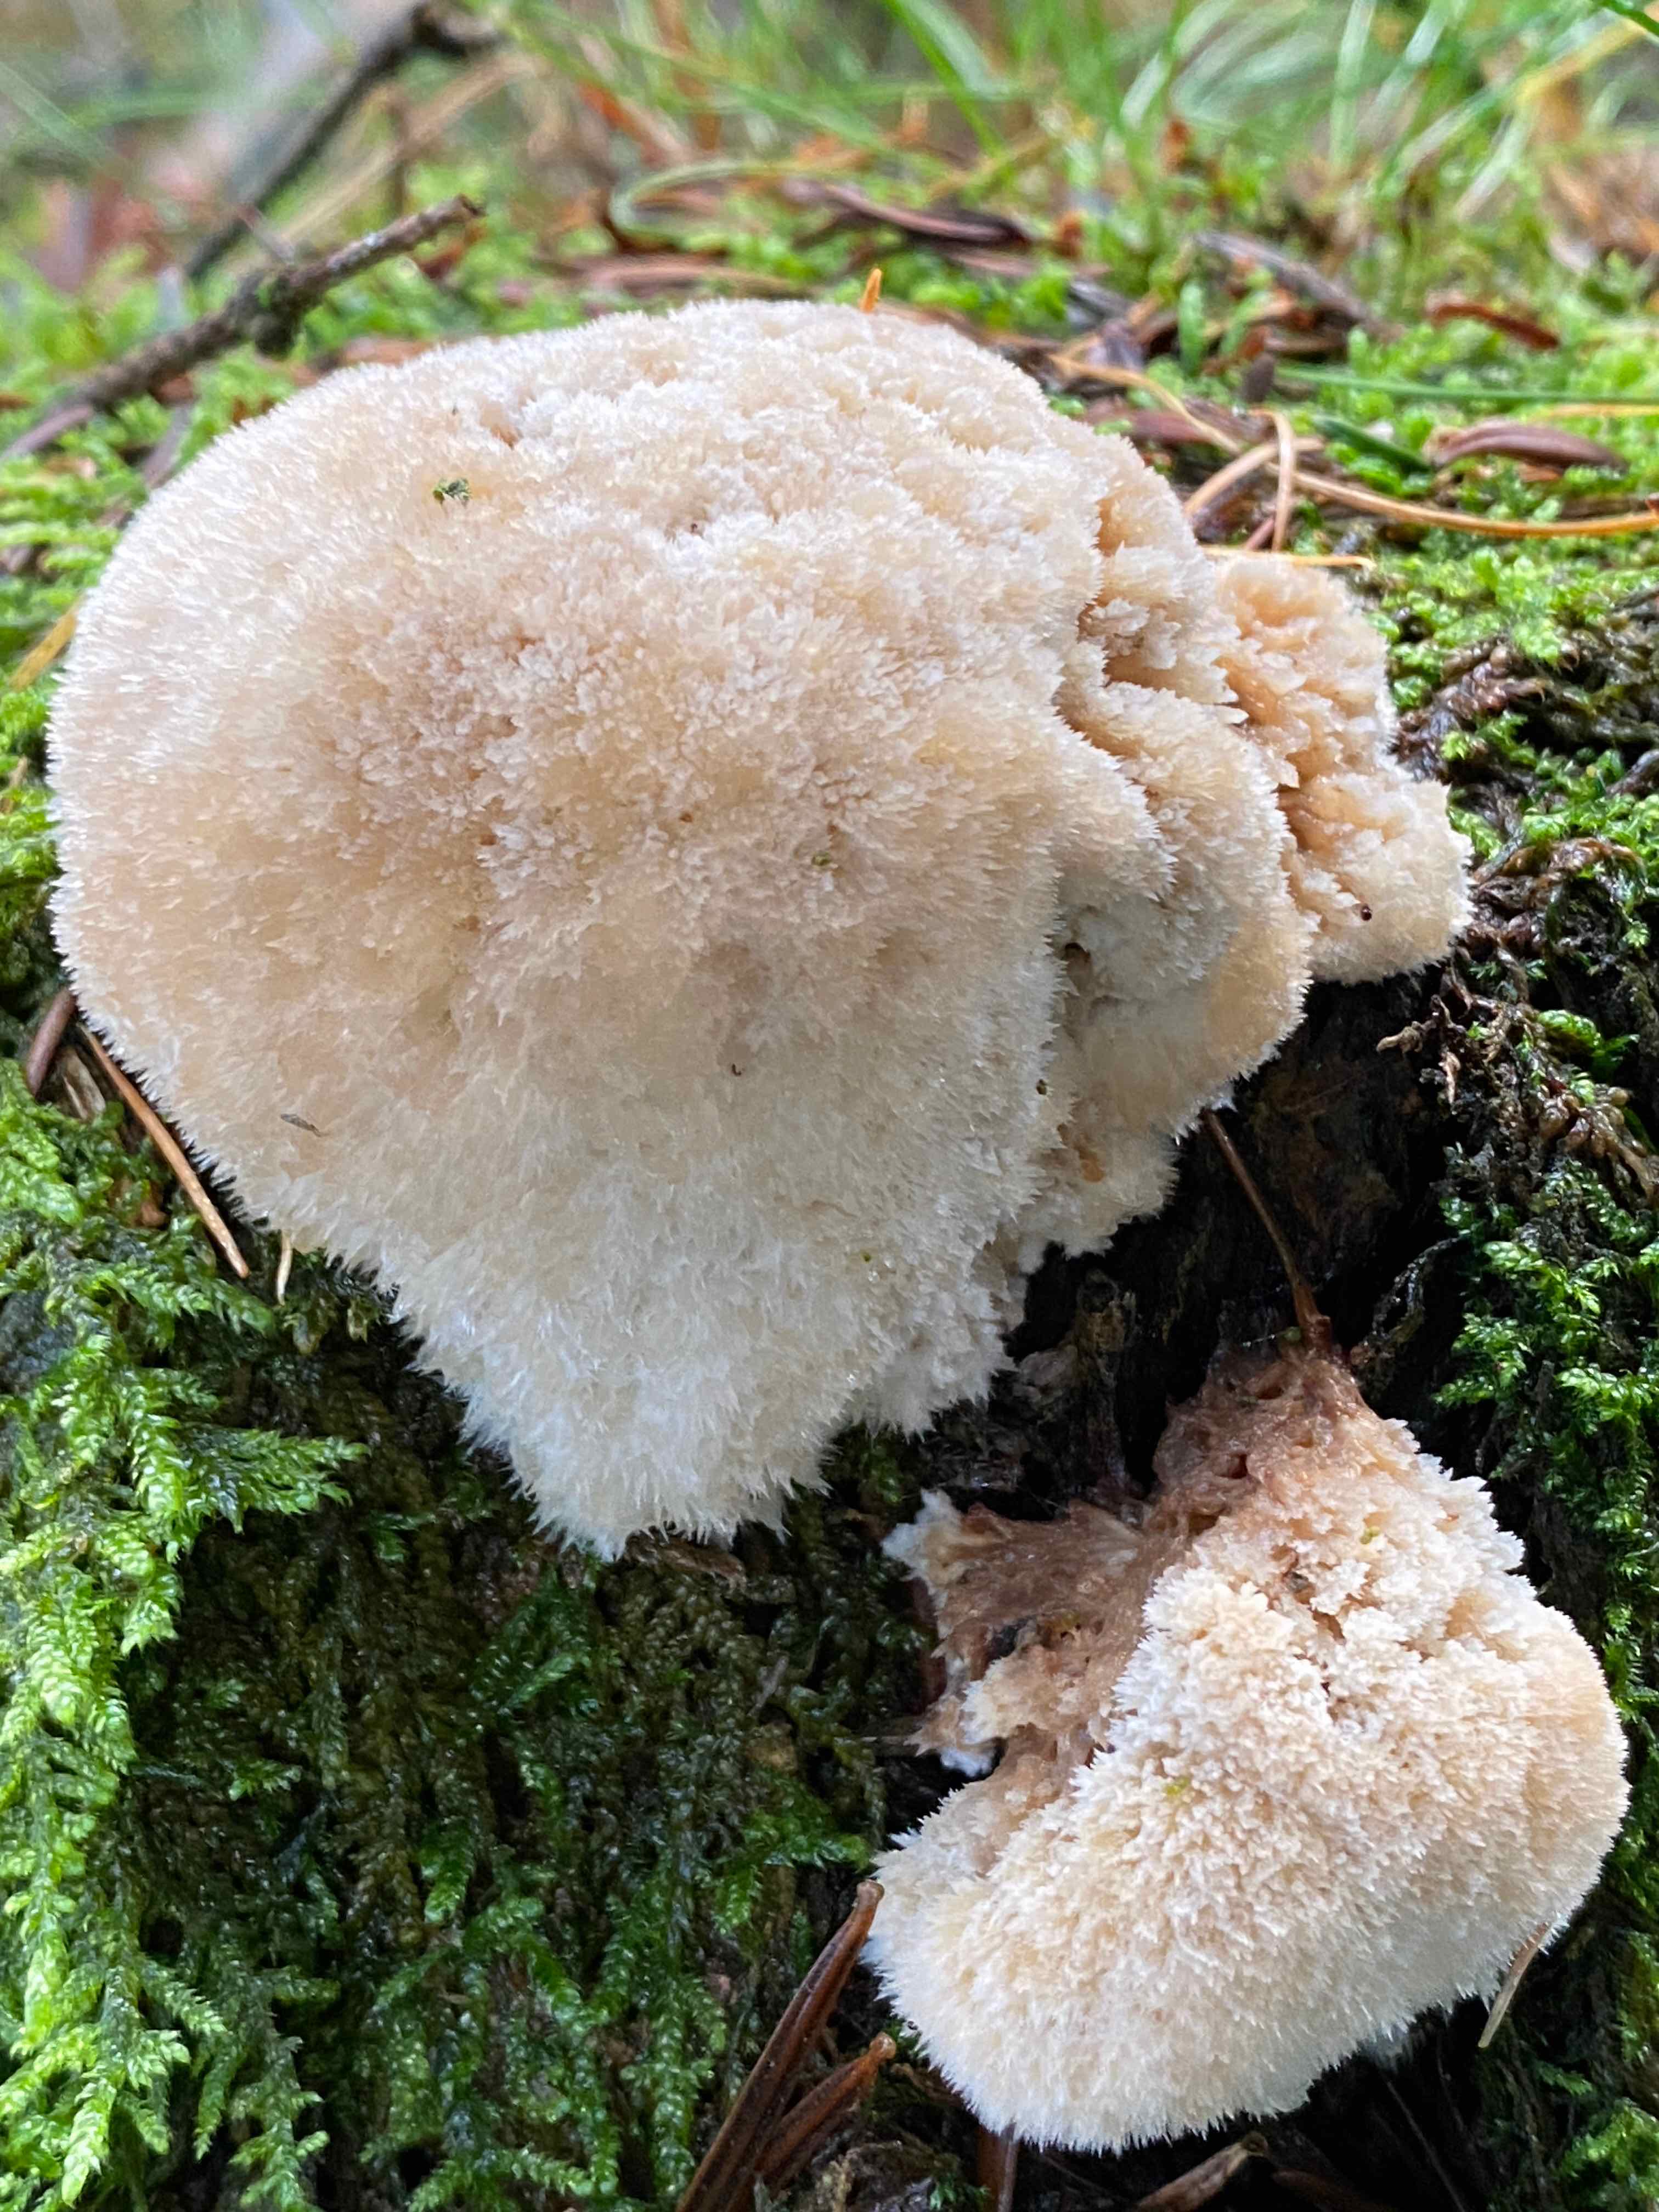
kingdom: Fungi
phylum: Basidiomycota
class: Agaricomycetes
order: Polyporales
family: Dacryobolaceae
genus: Postia
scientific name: Postia ptychogaster
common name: støvende kødporesvamp
